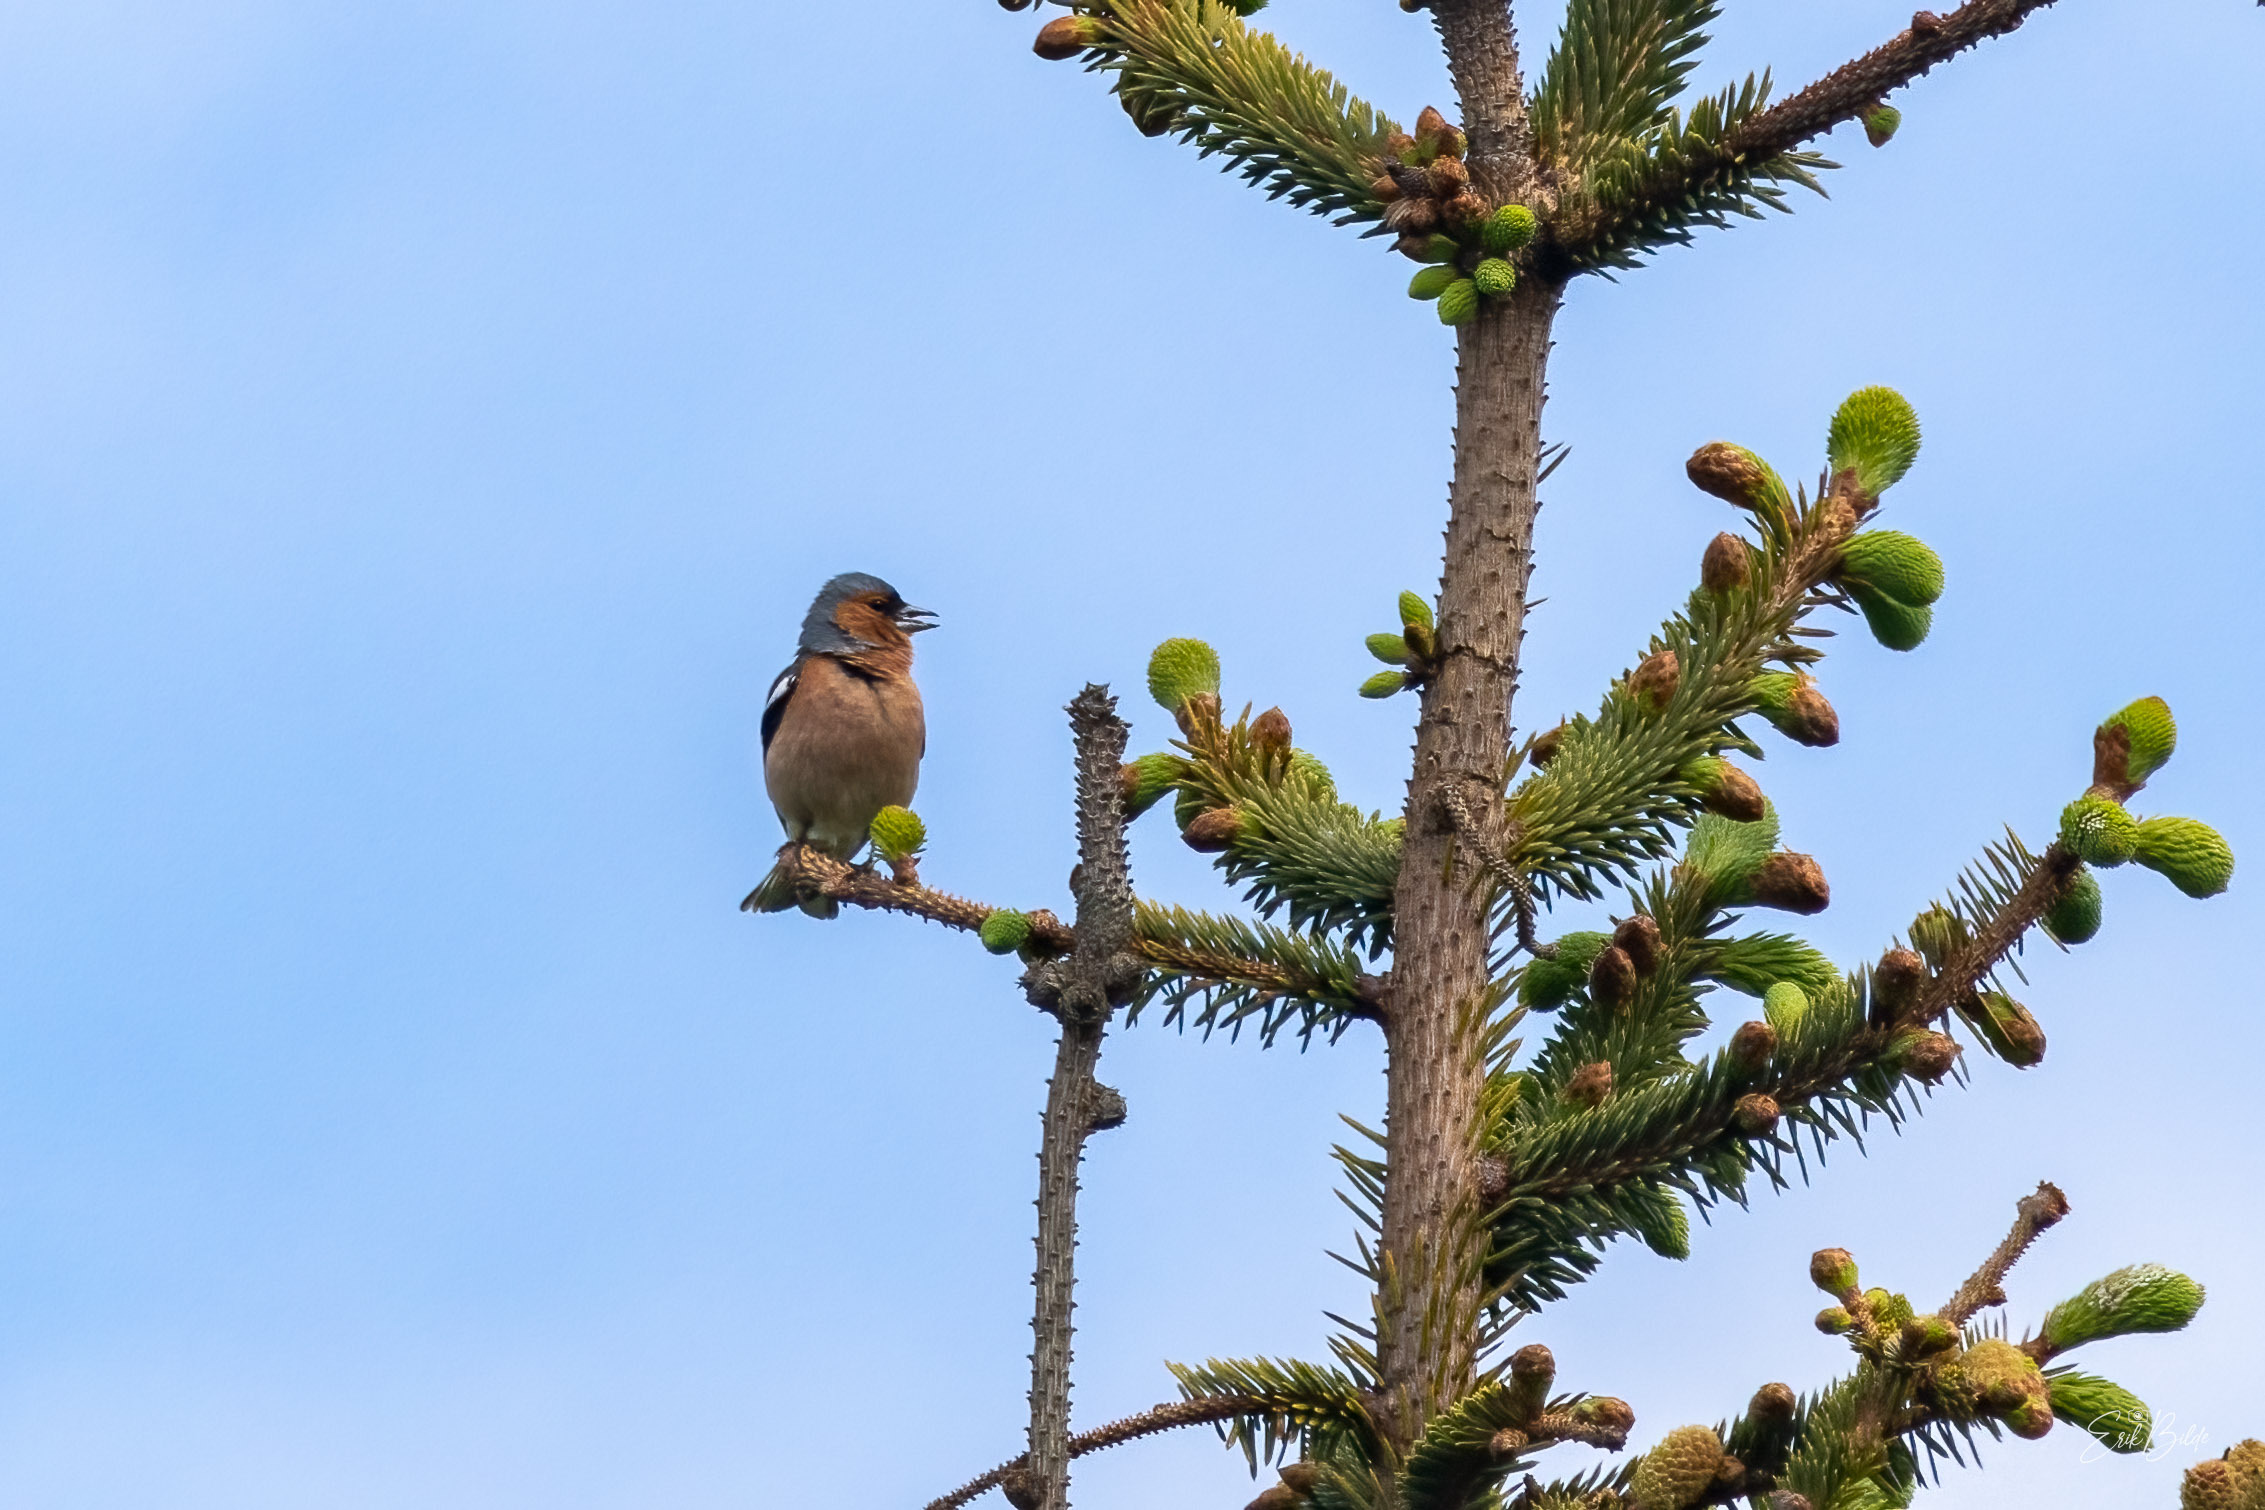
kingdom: Animalia
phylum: Chordata
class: Aves
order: Passeriformes
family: Fringillidae
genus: Fringilla
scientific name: Fringilla coelebs
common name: Bogfinke
